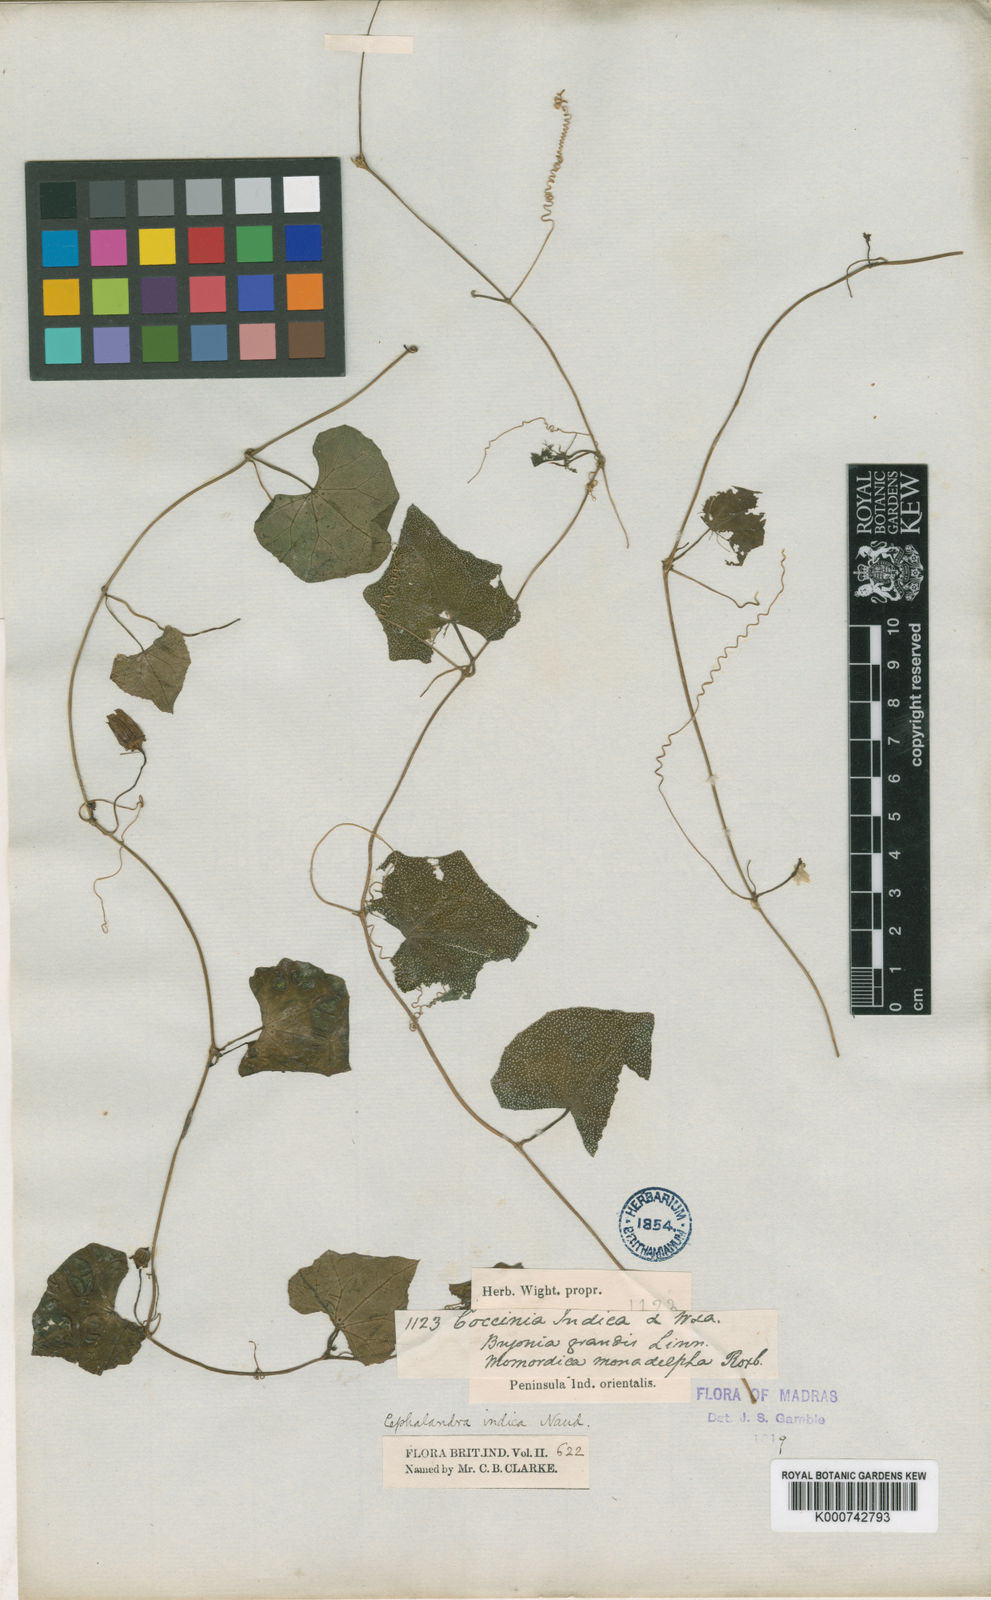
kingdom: Plantae
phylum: Tracheophyta
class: Magnoliopsida
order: Cucurbitales
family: Cucurbitaceae
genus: Coccinia
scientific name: Coccinia grandis
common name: Ivy gourd
